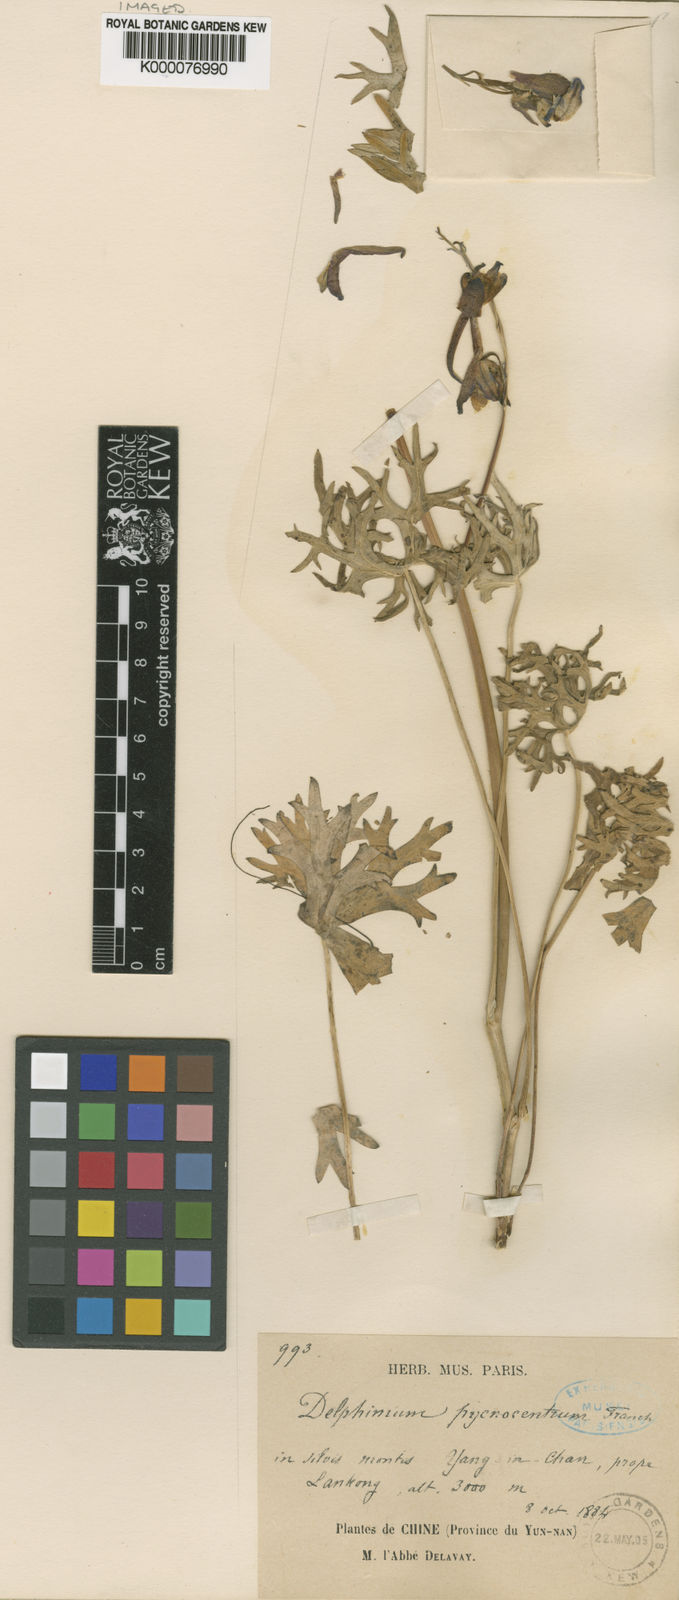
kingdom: Plantae
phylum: Tracheophyta
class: Magnoliopsida
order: Ranunculales
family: Ranunculaceae
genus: Delphinium
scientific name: Delphinium pycnocentrum
